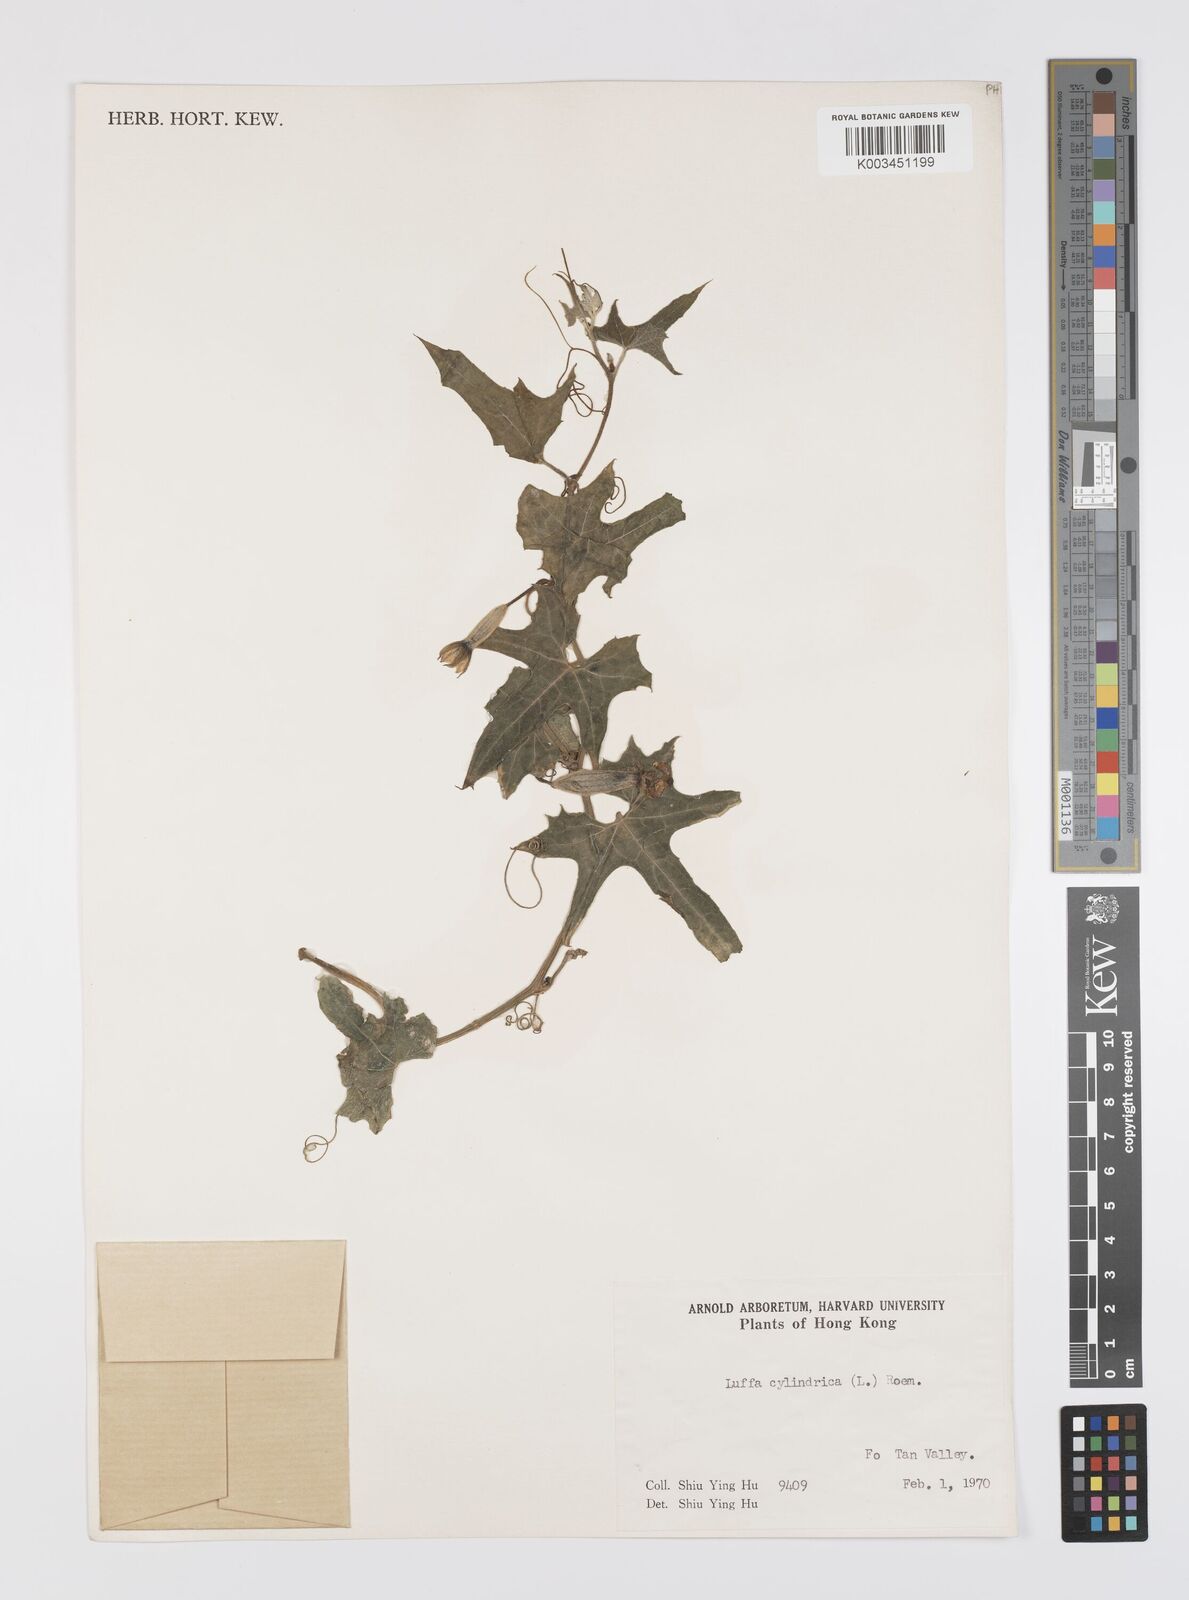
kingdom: Plantae
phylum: Tracheophyta
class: Magnoliopsida
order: Cucurbitales
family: Cucurbitaceae
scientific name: Cucurbitaceae
